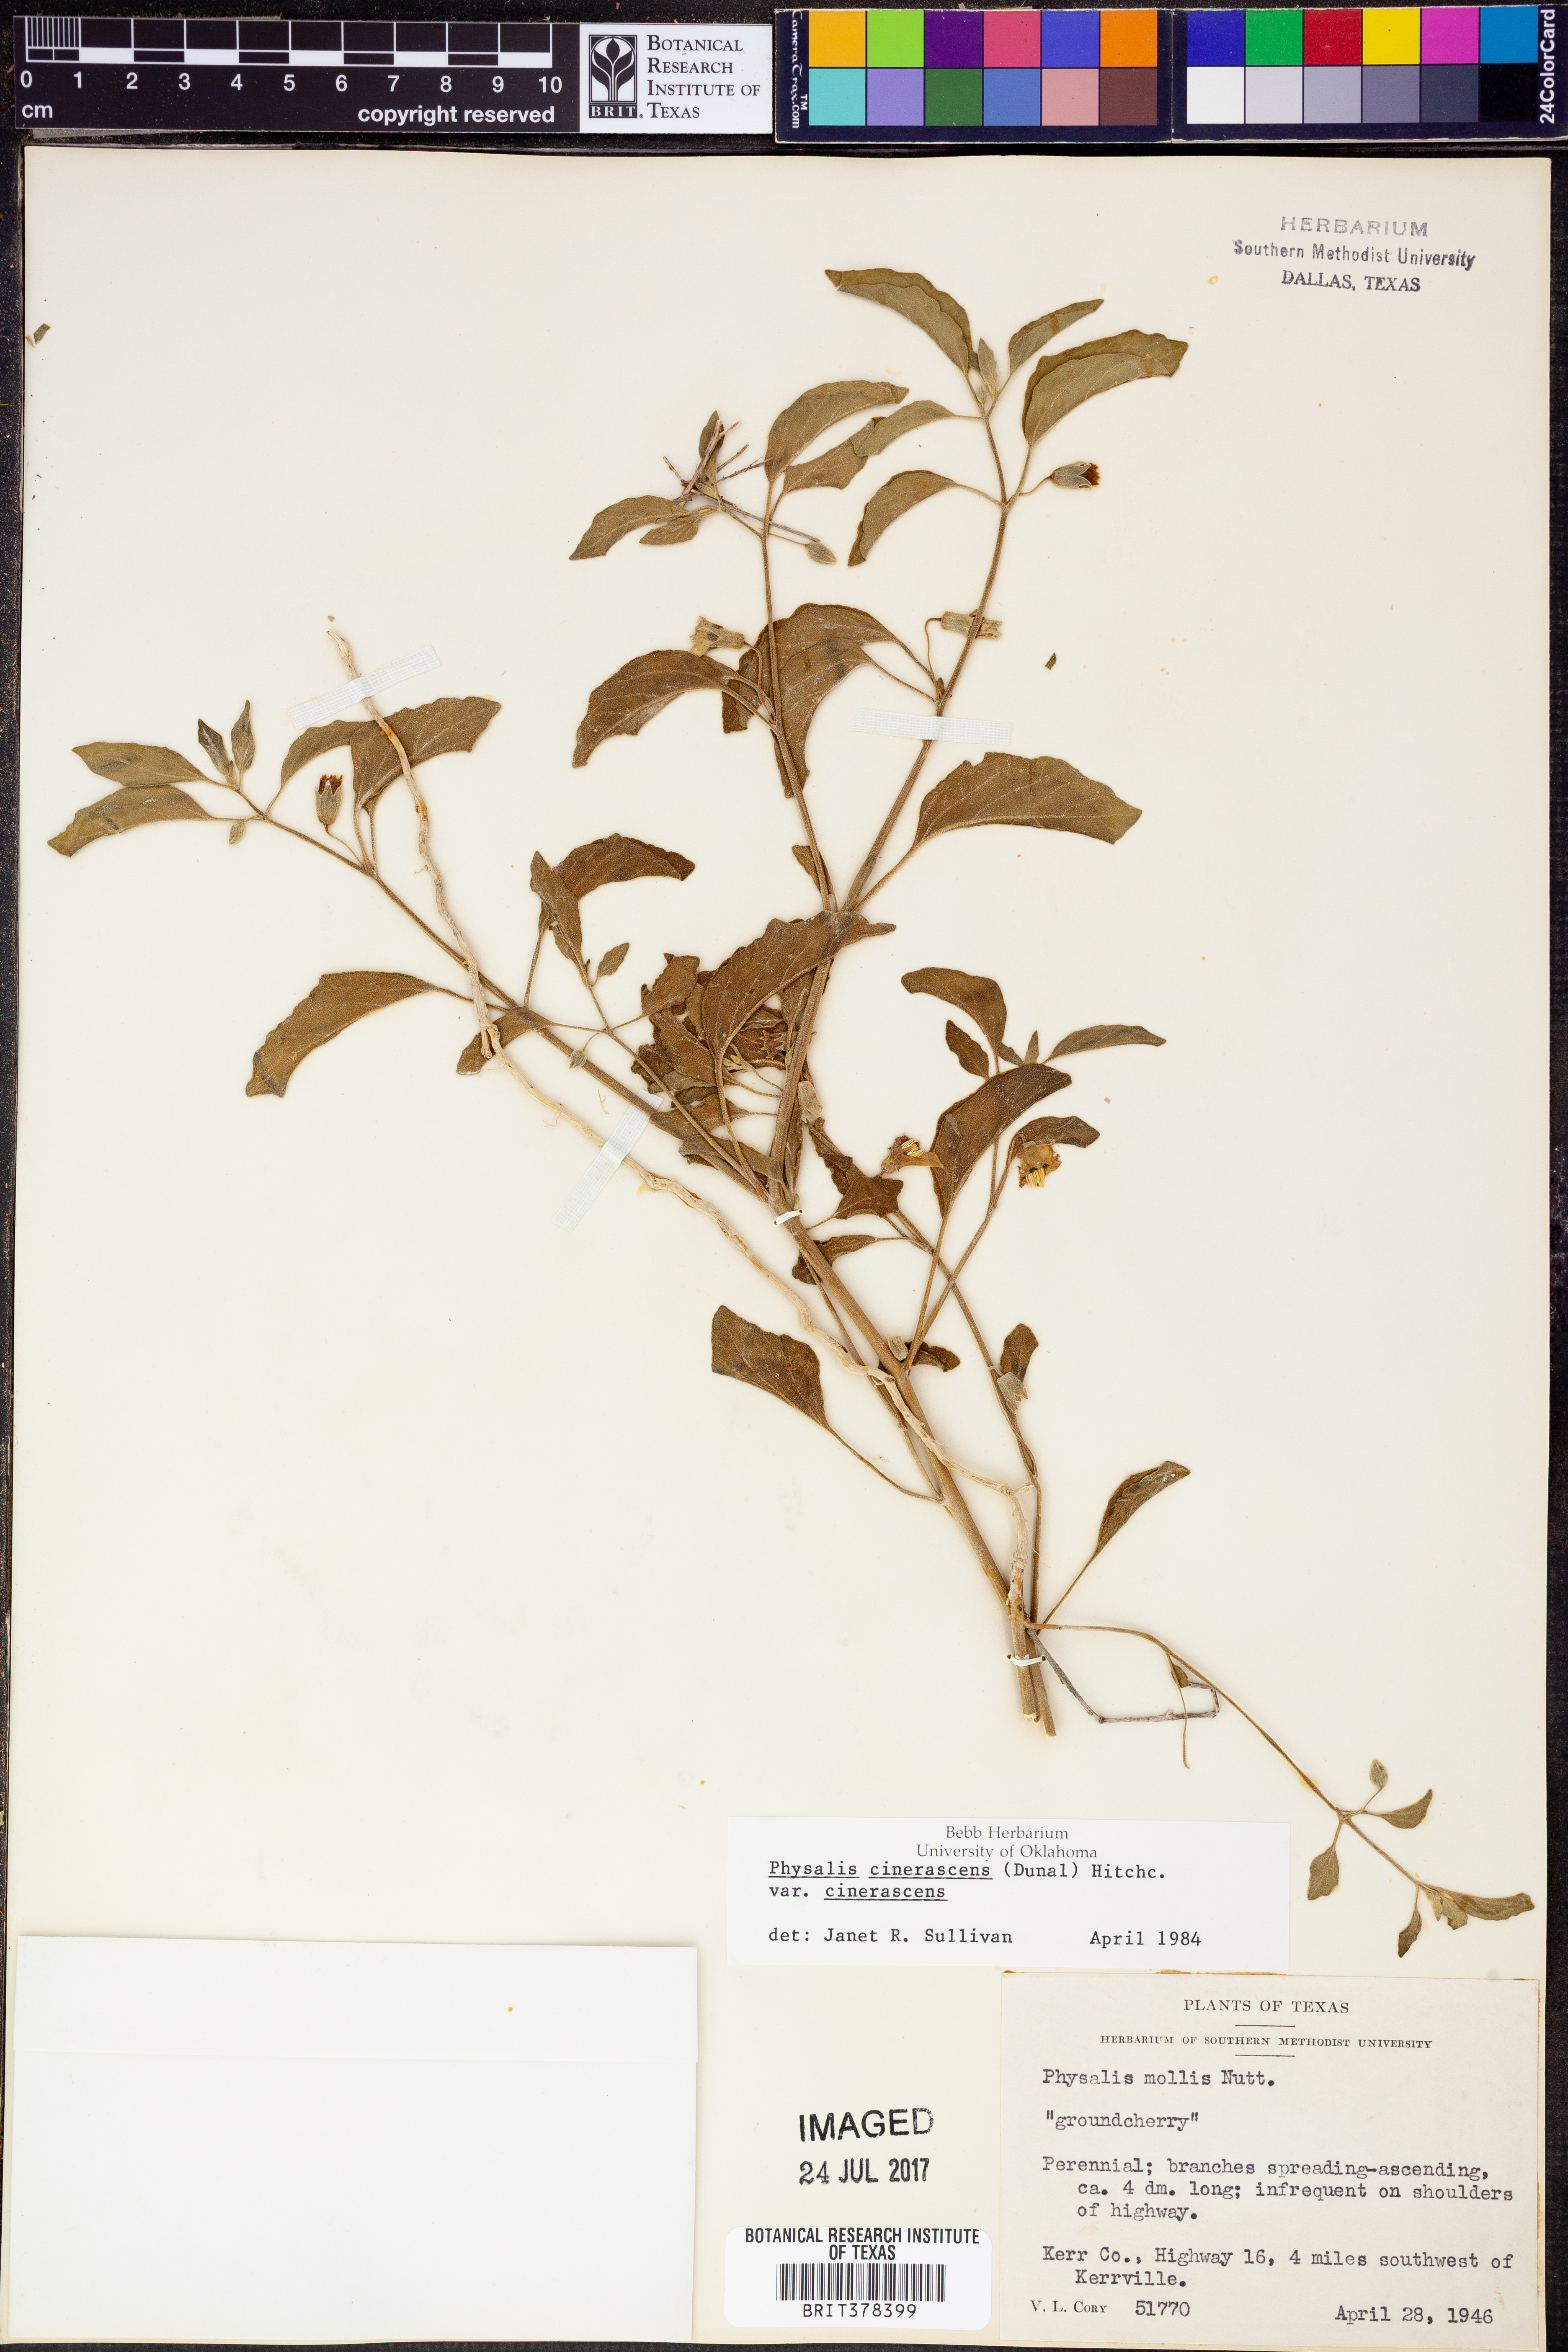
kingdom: Plantae
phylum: Tracheophyta
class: Magnoliopsida
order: Solanales
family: Solanaceae
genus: Physalis
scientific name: Physalis cinerascens
